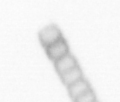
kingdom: Chromista
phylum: Ochrophyta
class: Bacillariophyceae
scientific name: Bacillariophyceae
